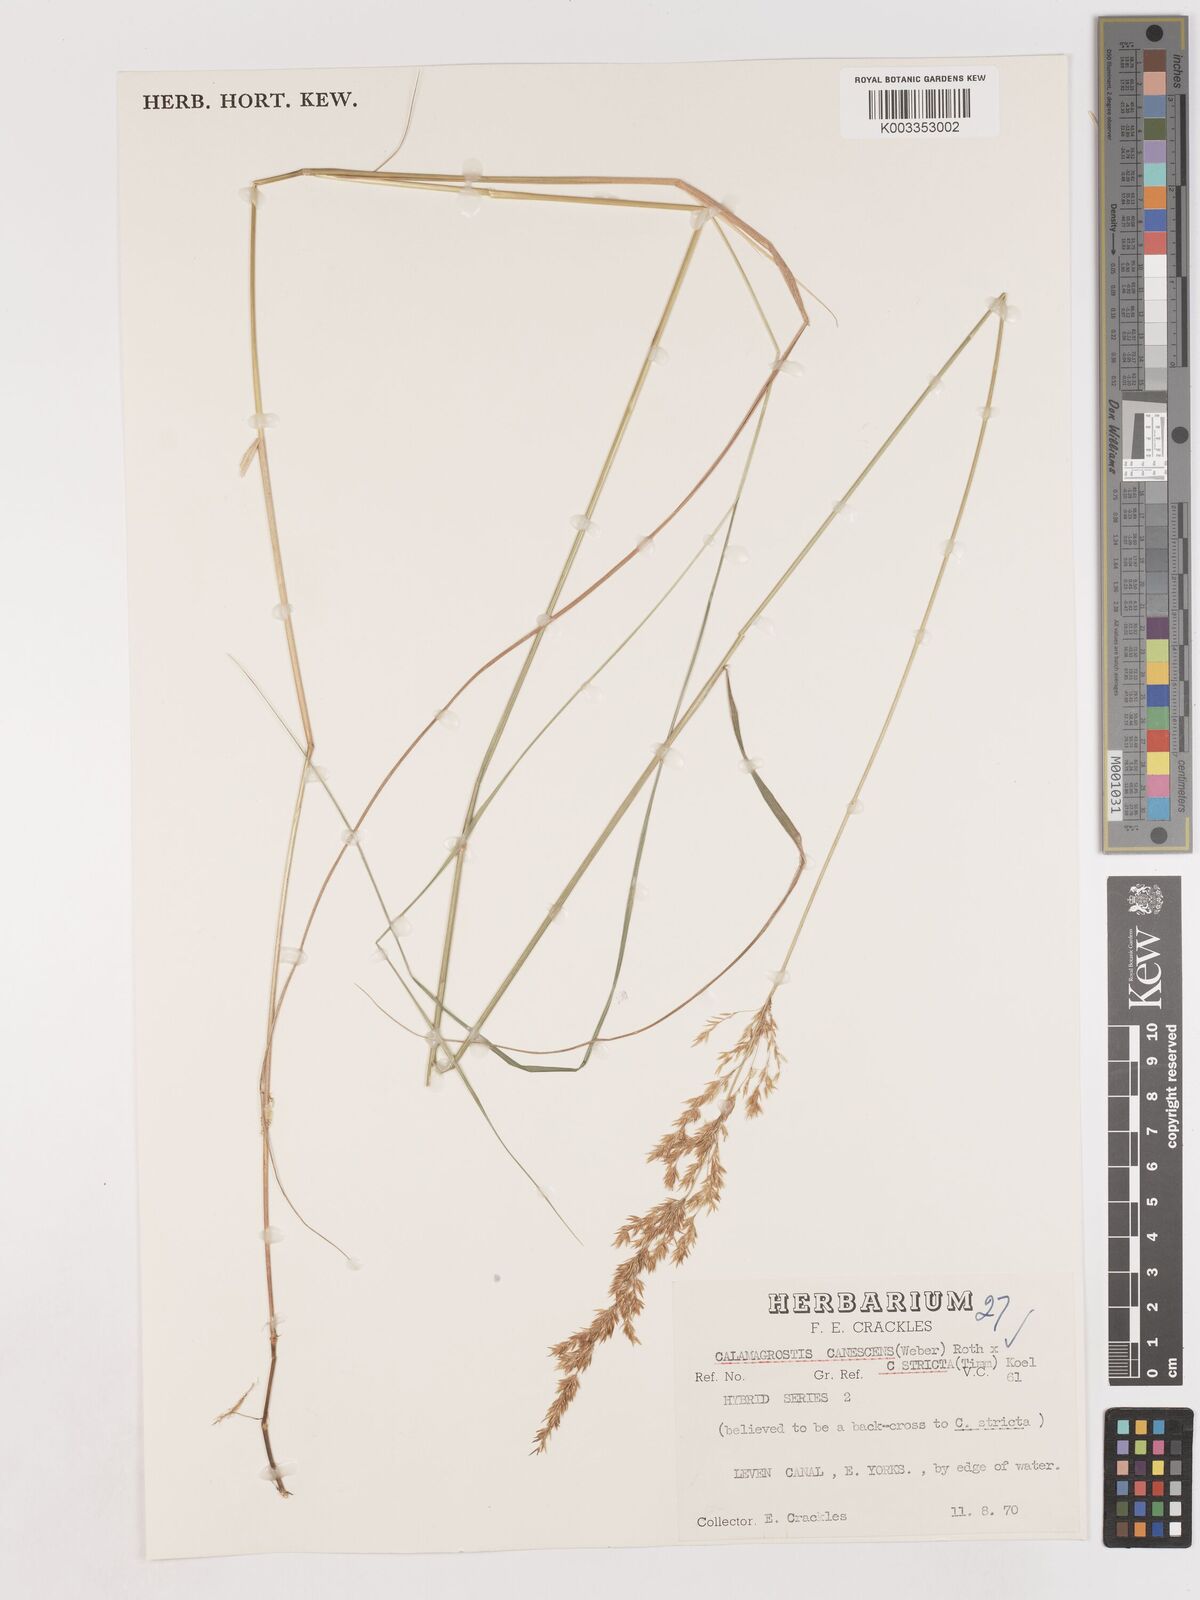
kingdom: Plantae
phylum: Tracheophyta
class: Liliopsida
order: Poales
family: Poaceae
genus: Calamagrostis
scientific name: Calamagrostis canescens
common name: Purple small-reed
